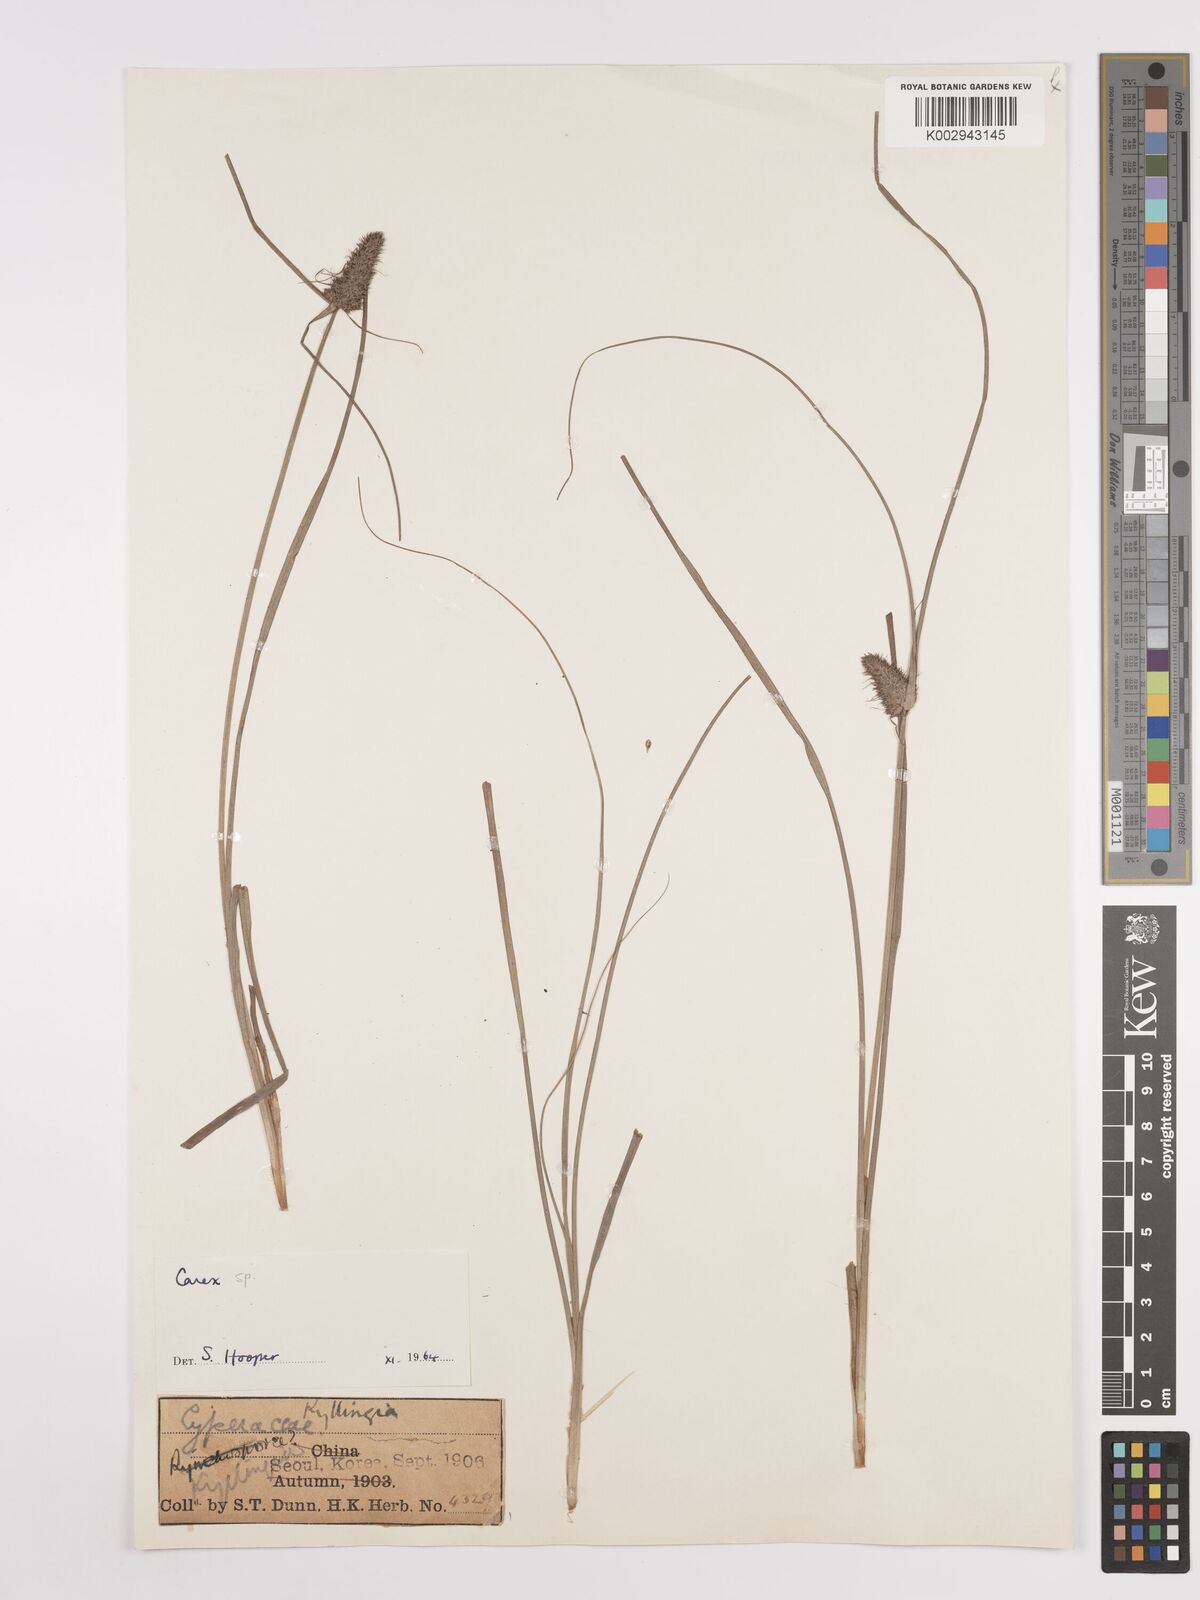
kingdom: Plantae
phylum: Tracheophyta
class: Liliopsida
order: Poales
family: Cyperaceae
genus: Carex
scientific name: Carex
